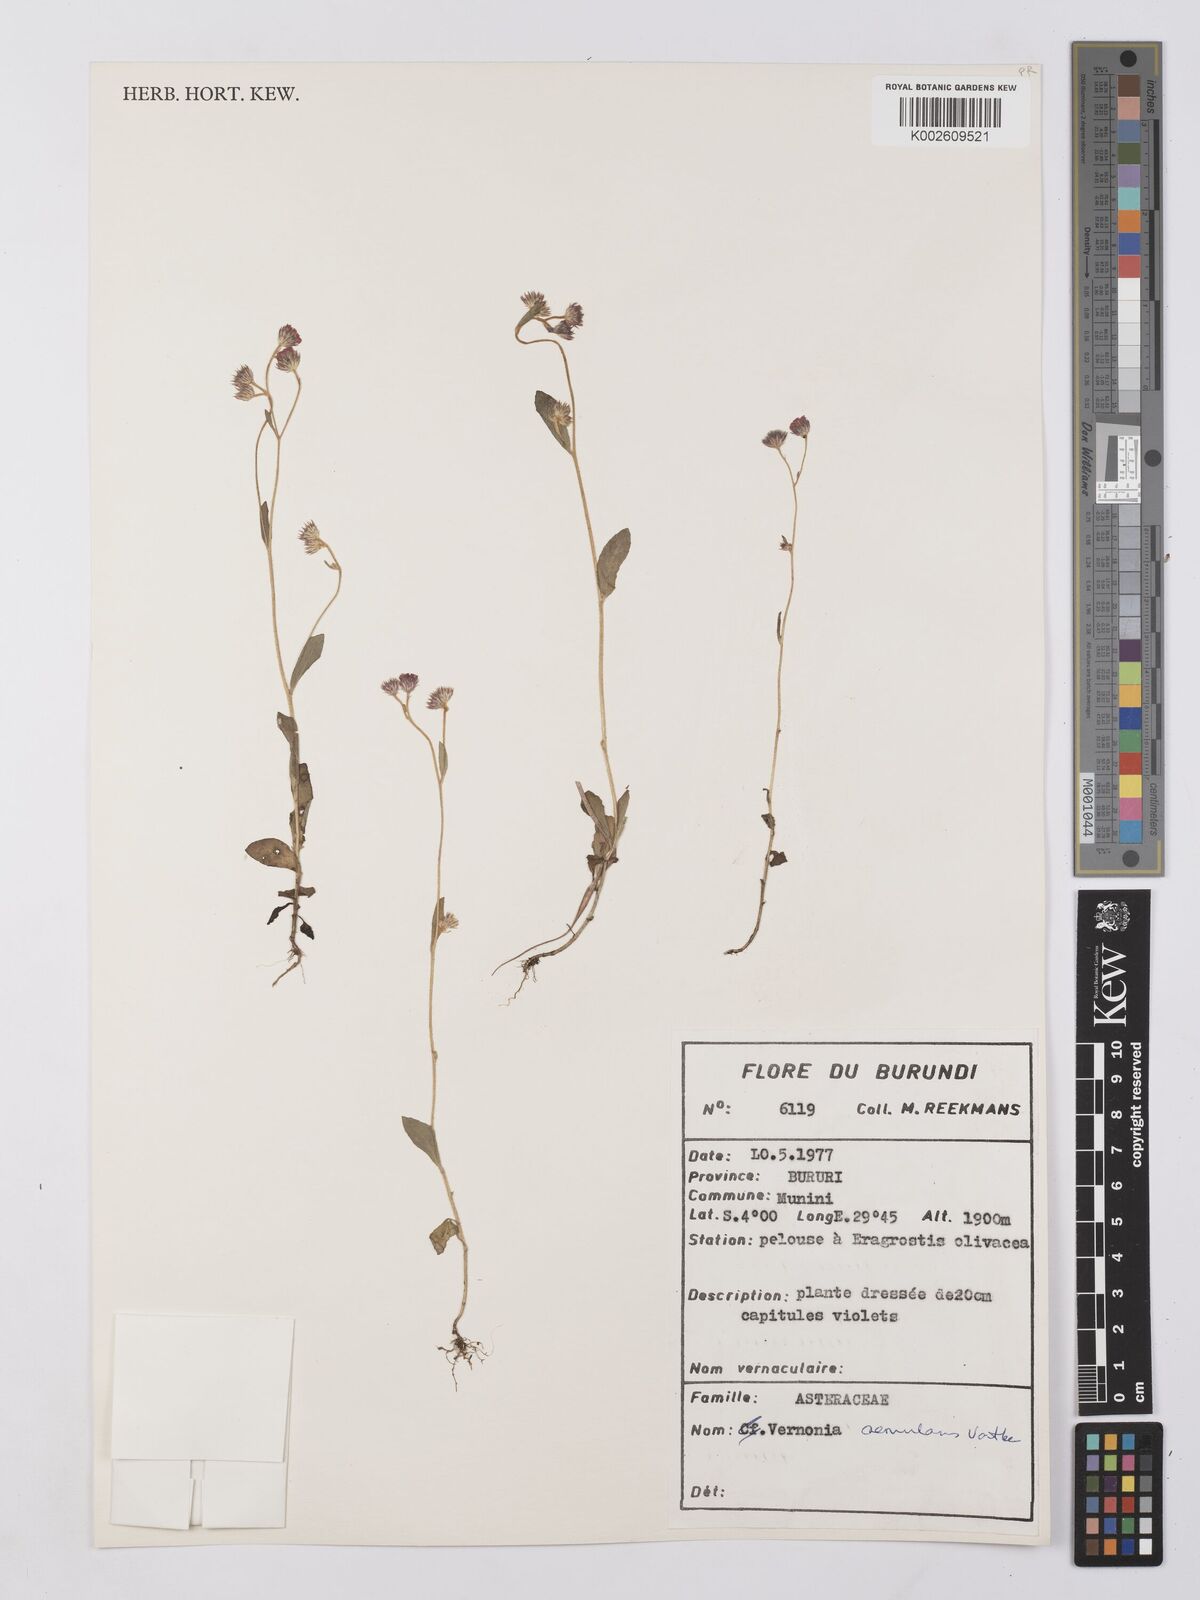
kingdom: Plantae
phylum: Tracheophyta
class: Magnoliopsida
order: Asterales
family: Asteraceae
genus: Vernonia
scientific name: Vernonia
